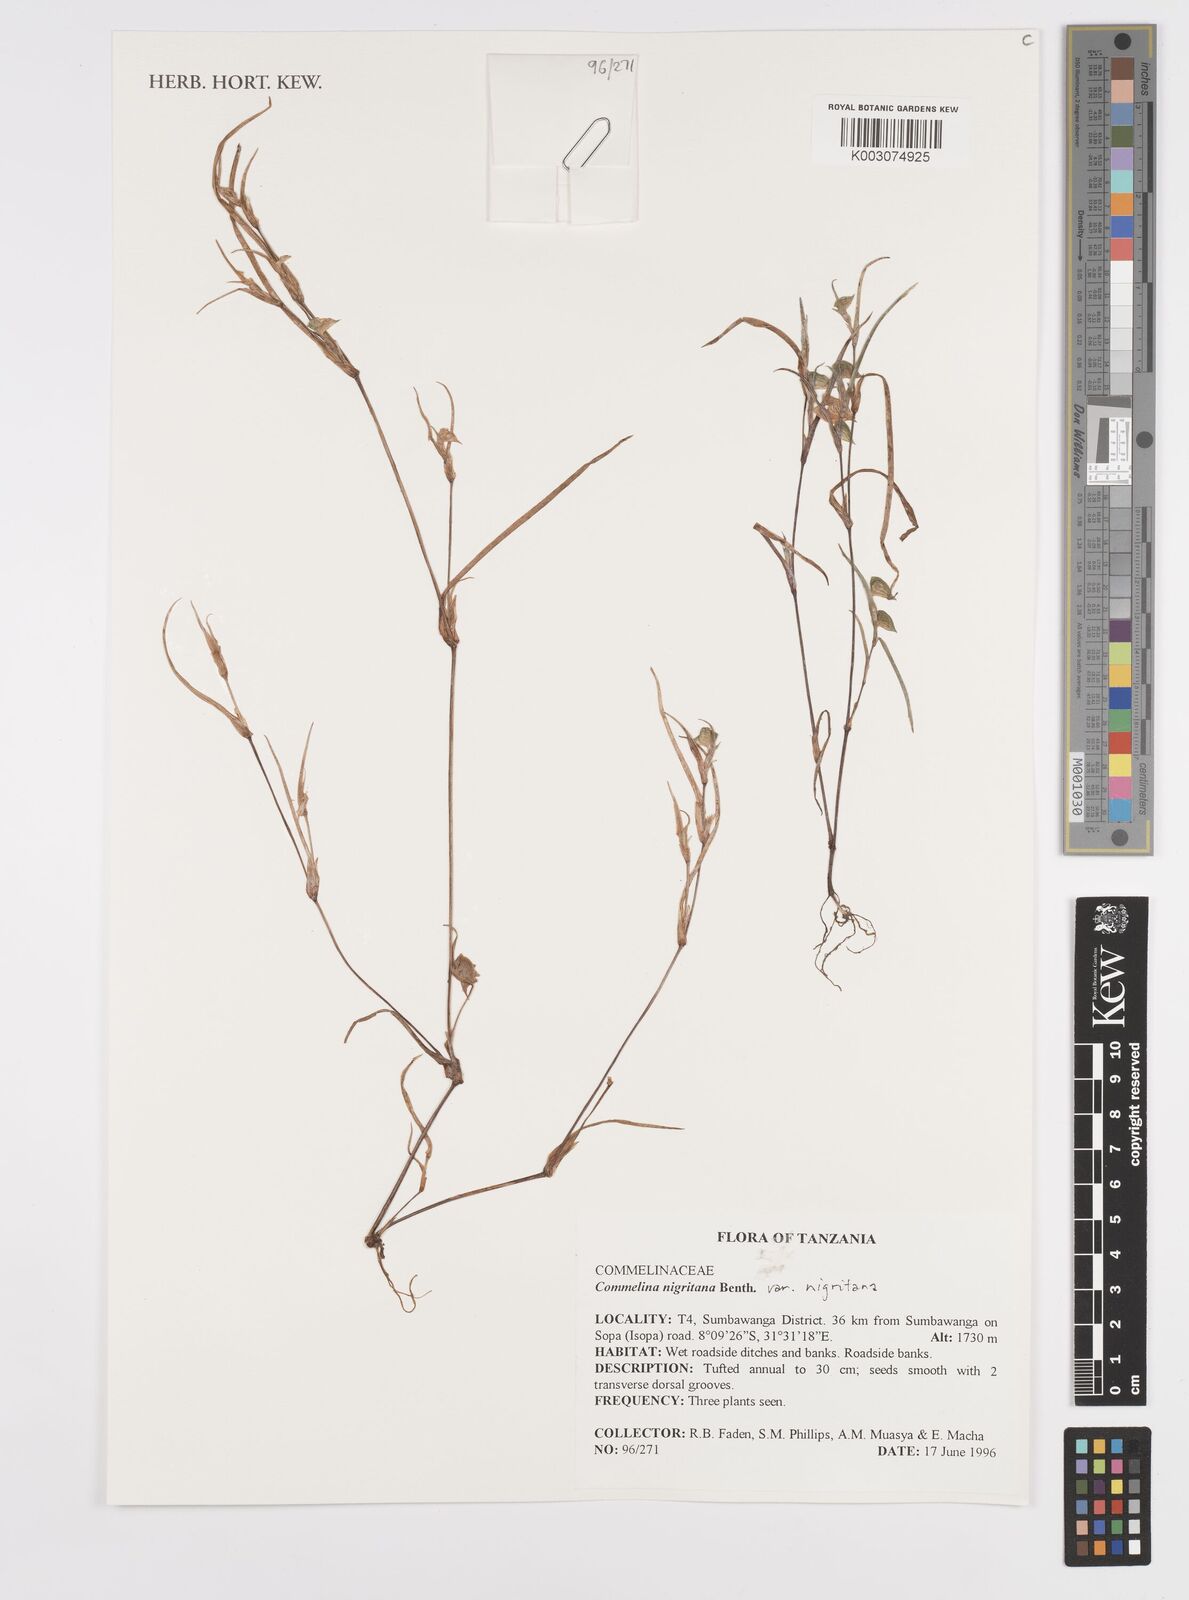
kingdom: Plantae
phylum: Tracheophyta
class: Liliopsida
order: Commelinales
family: Commelinaceae
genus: Commelina
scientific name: Commelina nigritana
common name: African dayflower
